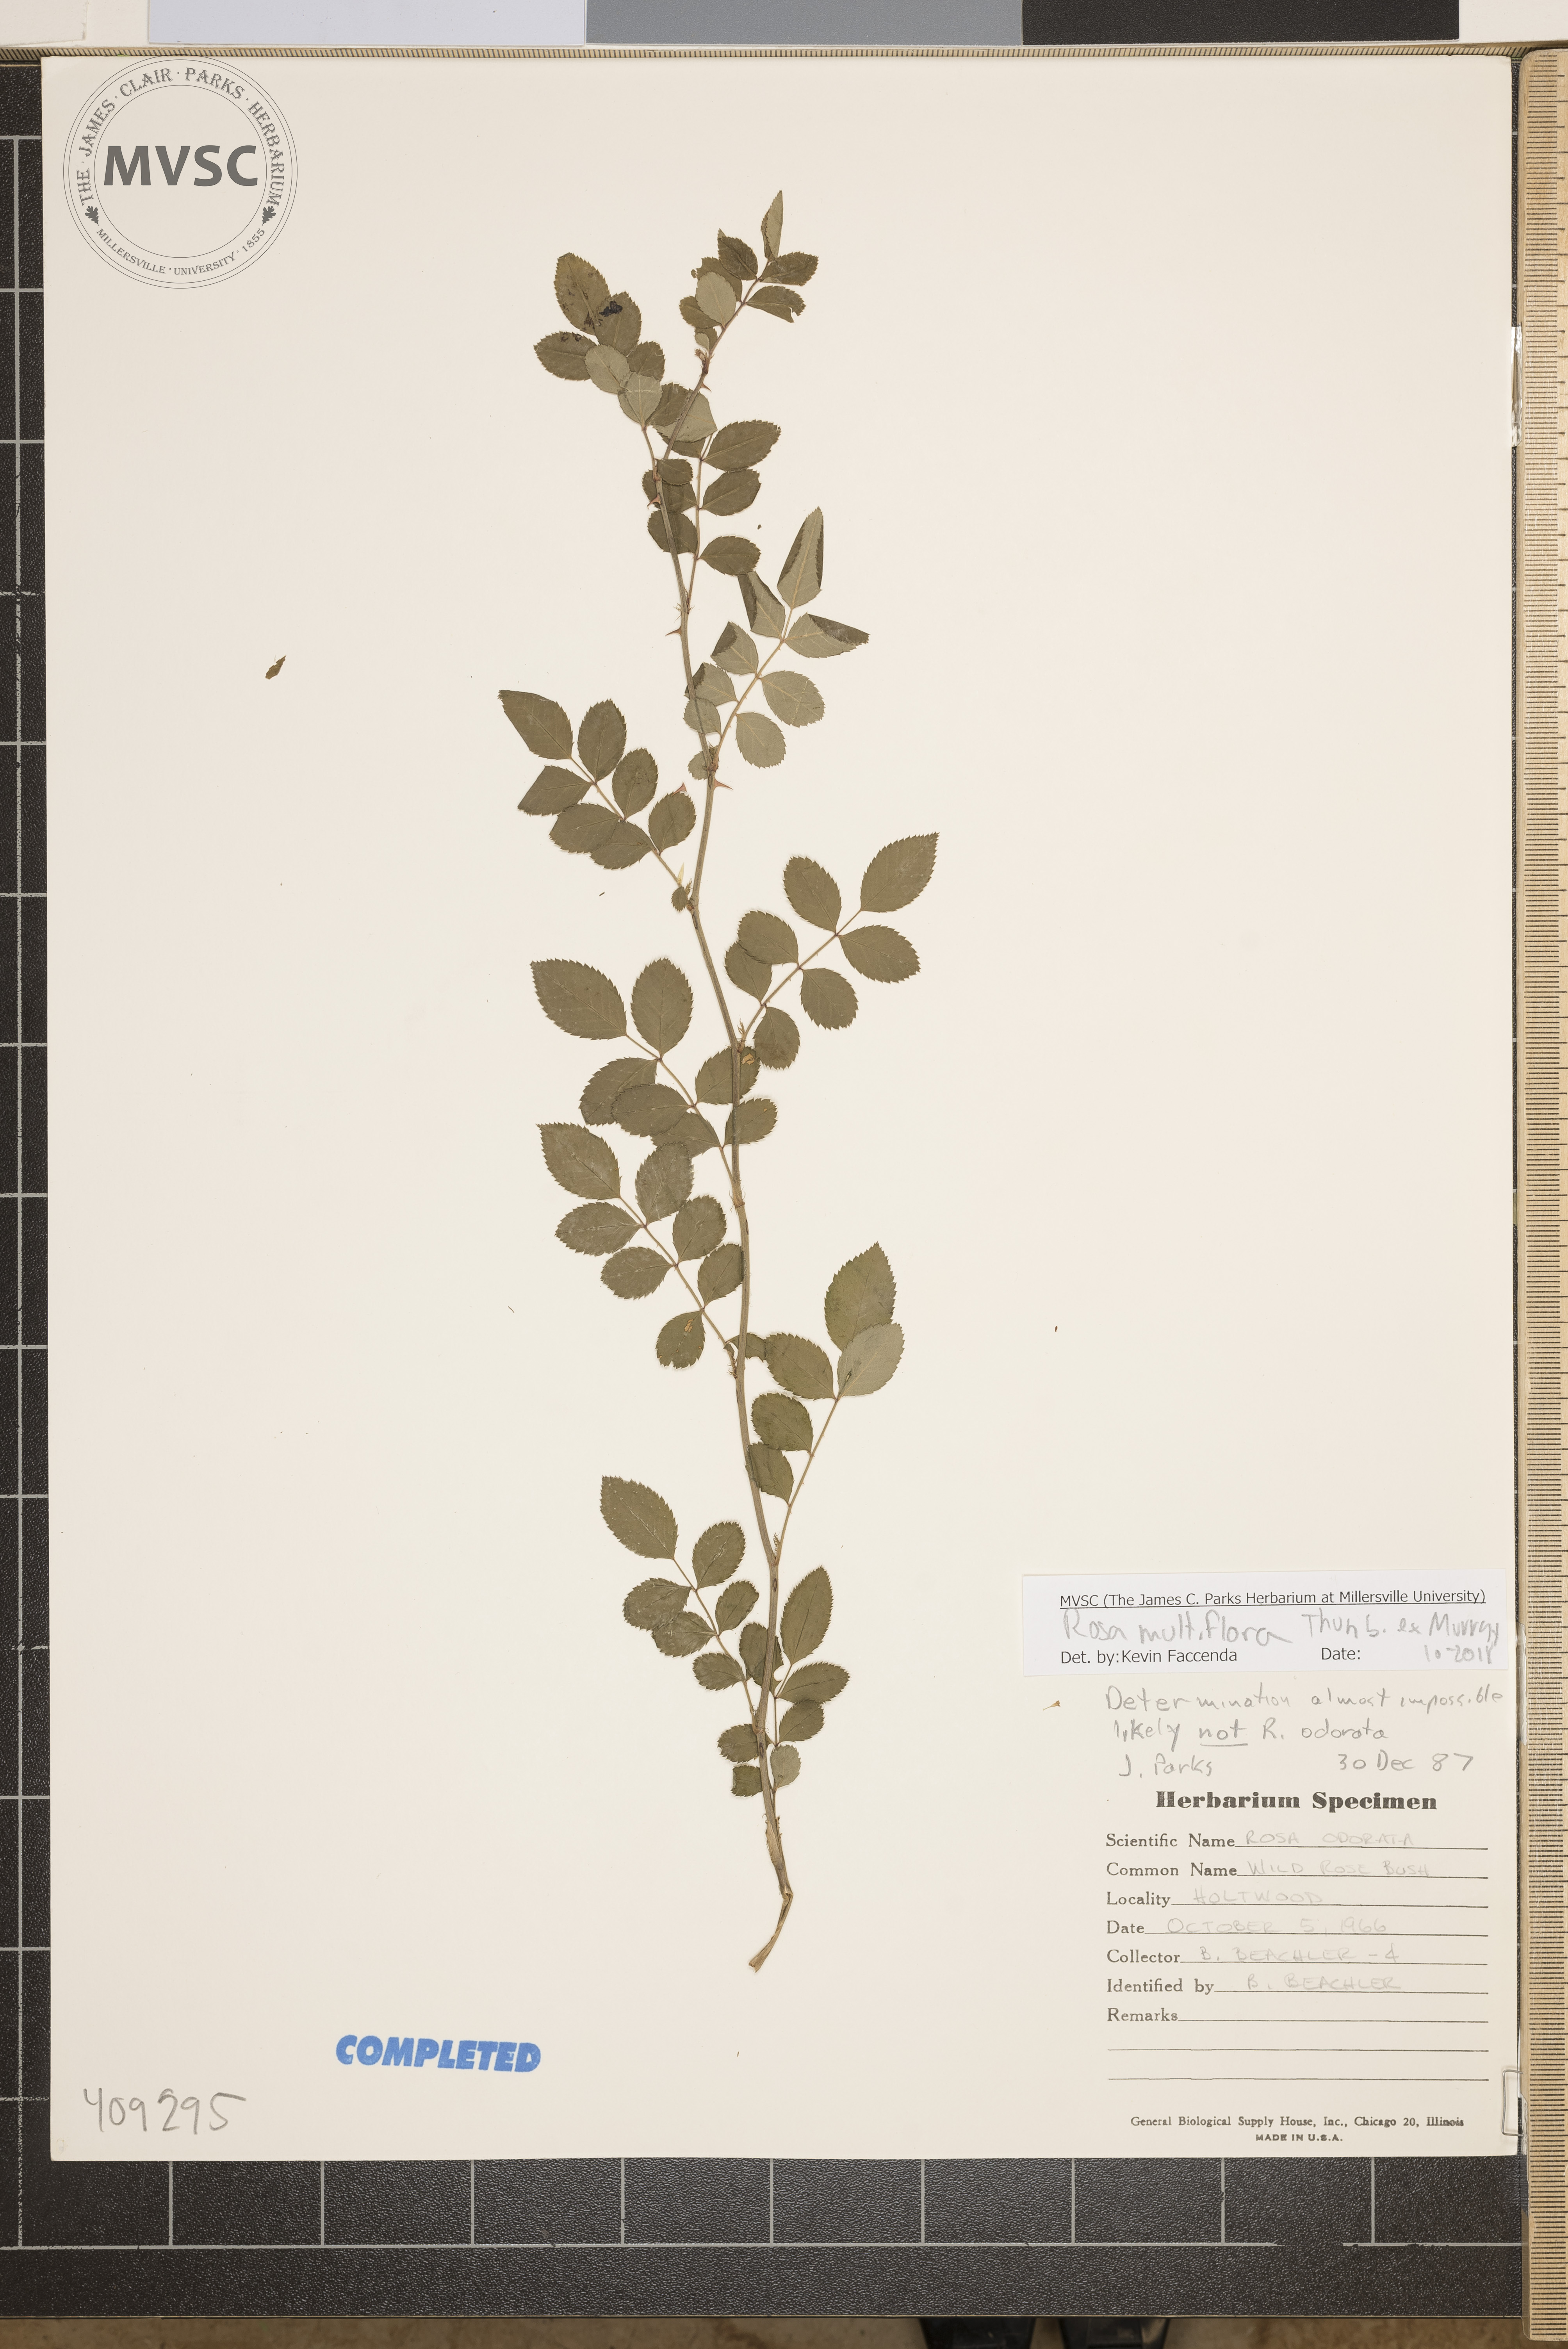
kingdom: Plantae
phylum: Tracheophyta
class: Magnoliopsida
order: Rosales
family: Rosaceae
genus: Rosa
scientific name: Rosa multiflora
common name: Multiflora rose
